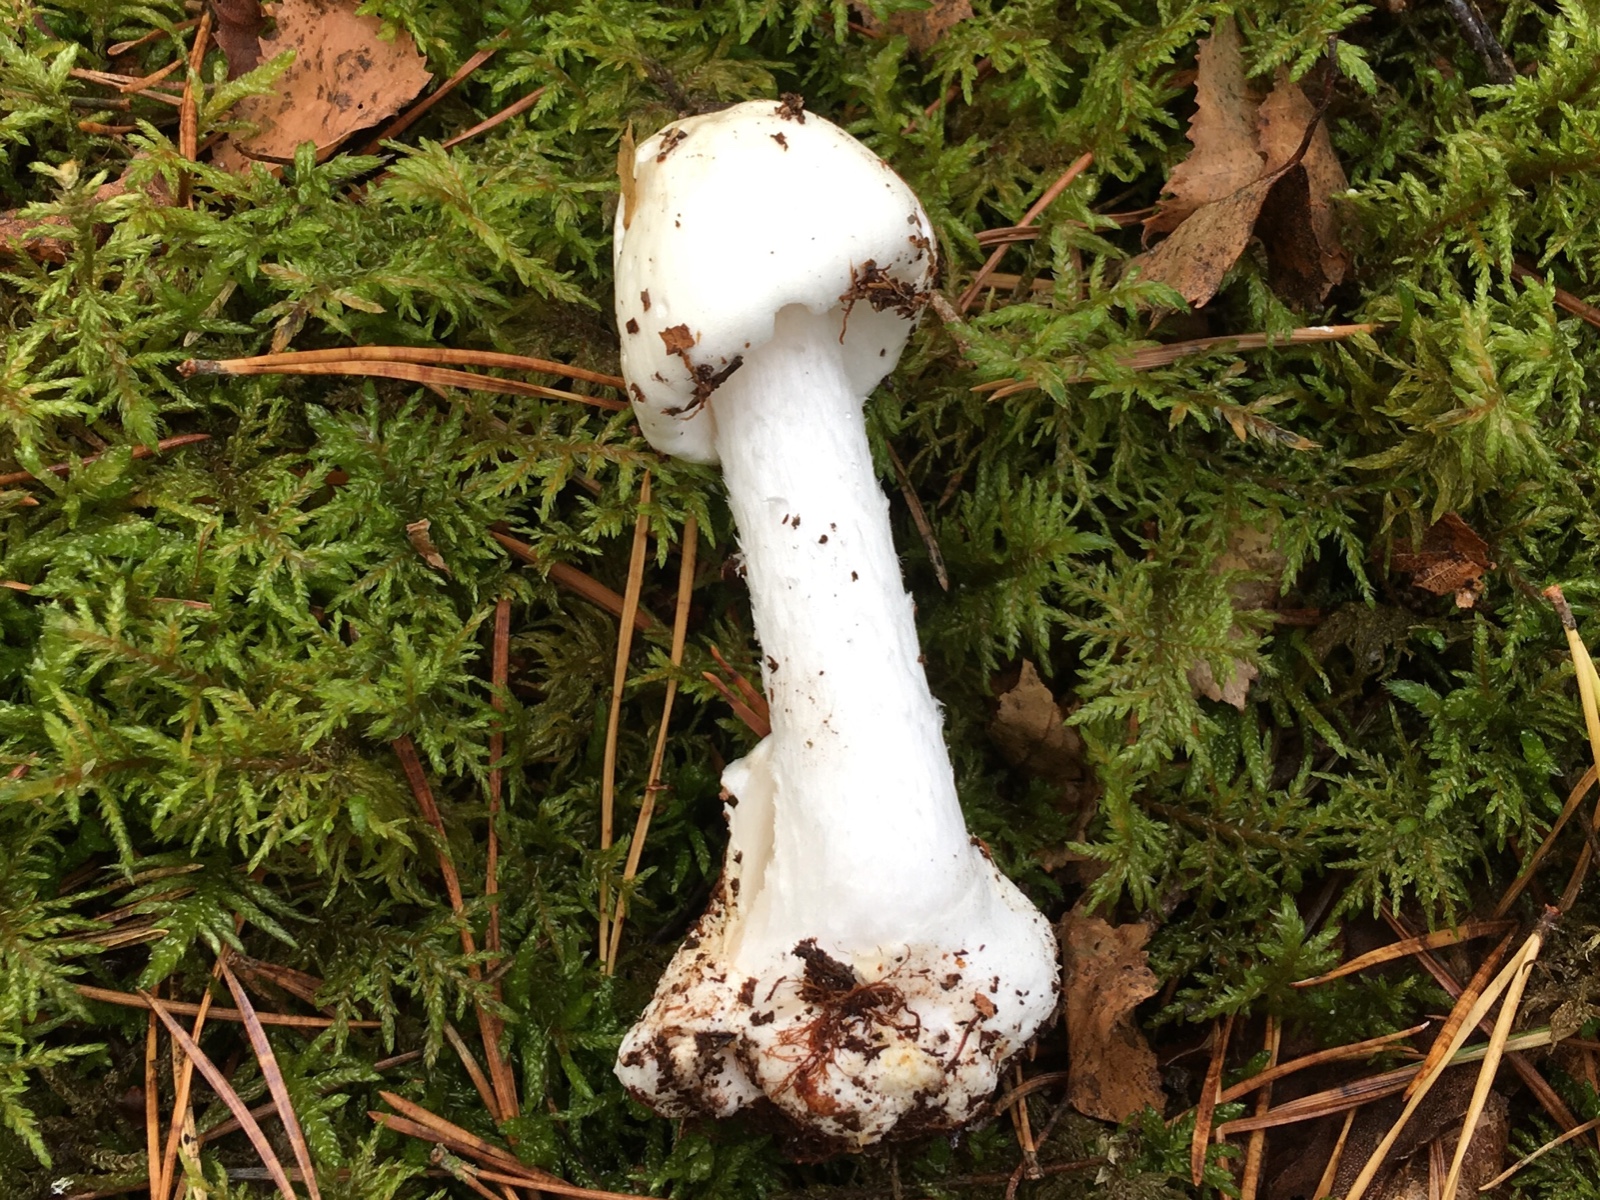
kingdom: Fungi
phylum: Basidiomycota
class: Agaricomycetes
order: Agaricales
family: Amanitaceae
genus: Amanita
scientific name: Amanita virosa
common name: snehvid fluesvamp
